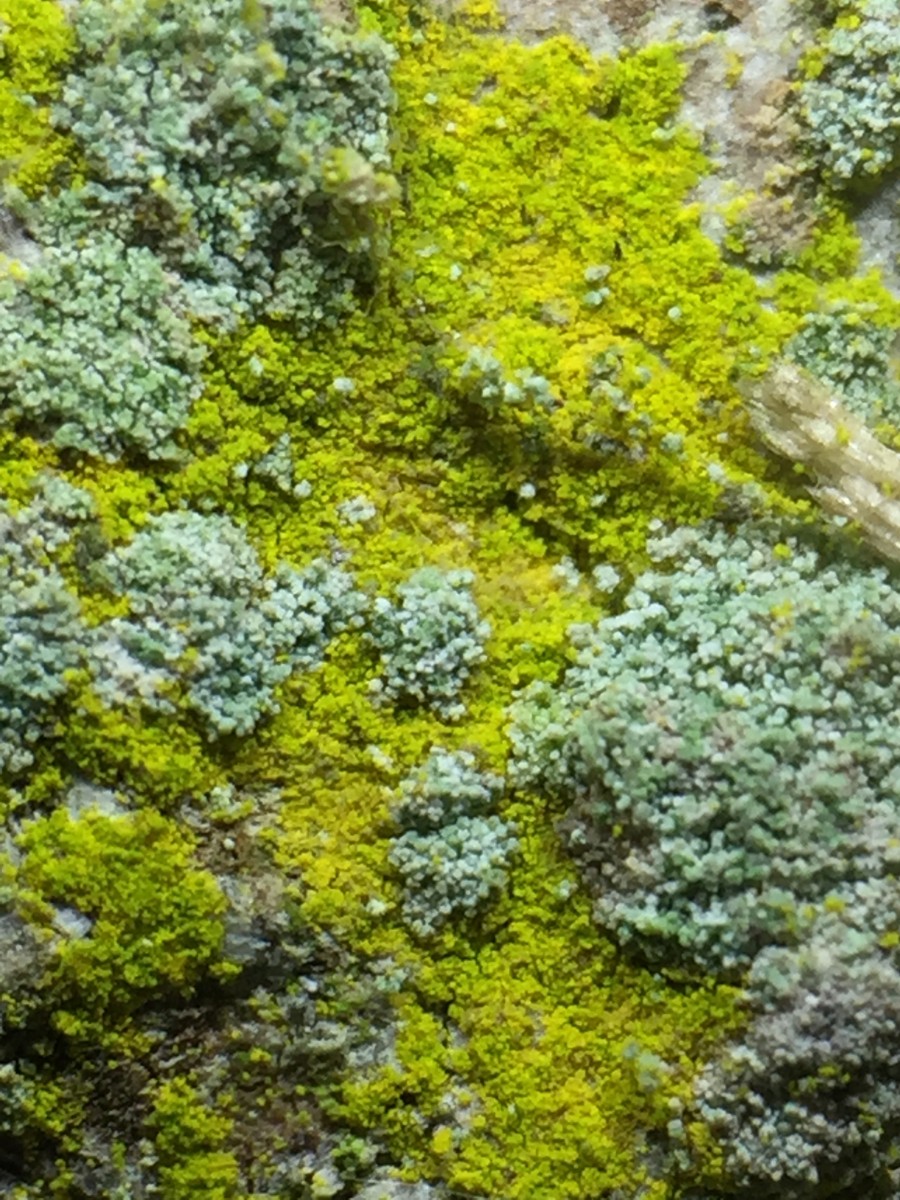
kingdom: Fungi
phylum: Ascomycota
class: Arthoniomycetes
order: Arthoniales
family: Chrysotrichaceae
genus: Chrysothrix
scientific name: Chrysothrix candelaris
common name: gul støvlav
